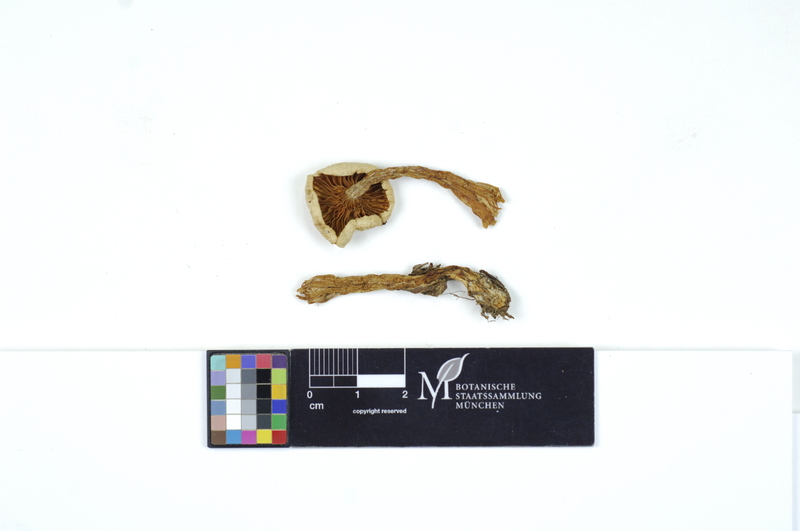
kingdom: Fungi
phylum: Basidiomycota
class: Agaricomycetes
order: Agaricales
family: Hygrophoraceae
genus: Hygrophorus
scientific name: Hygrophorus piceae
